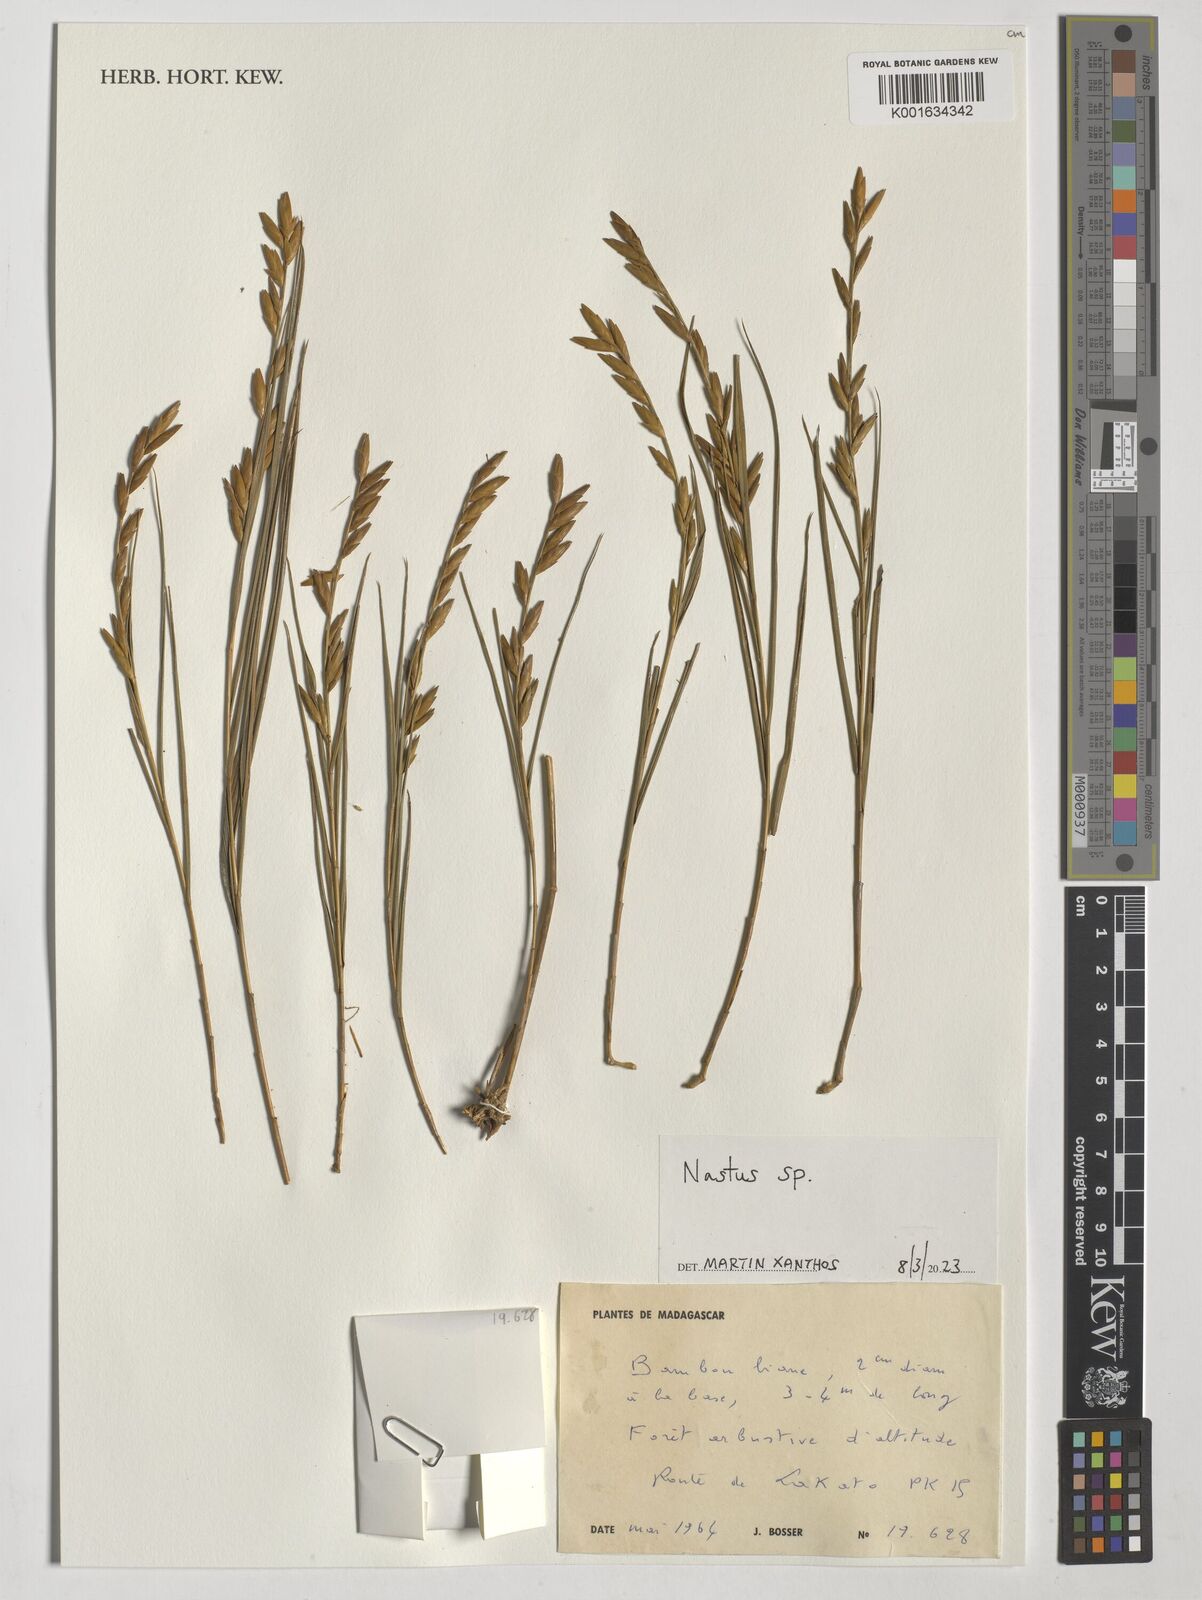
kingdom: Plantae
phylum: Tracheophyta
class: Liliopsida
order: Poales
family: Poaceae
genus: Nastus
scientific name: Nastus
